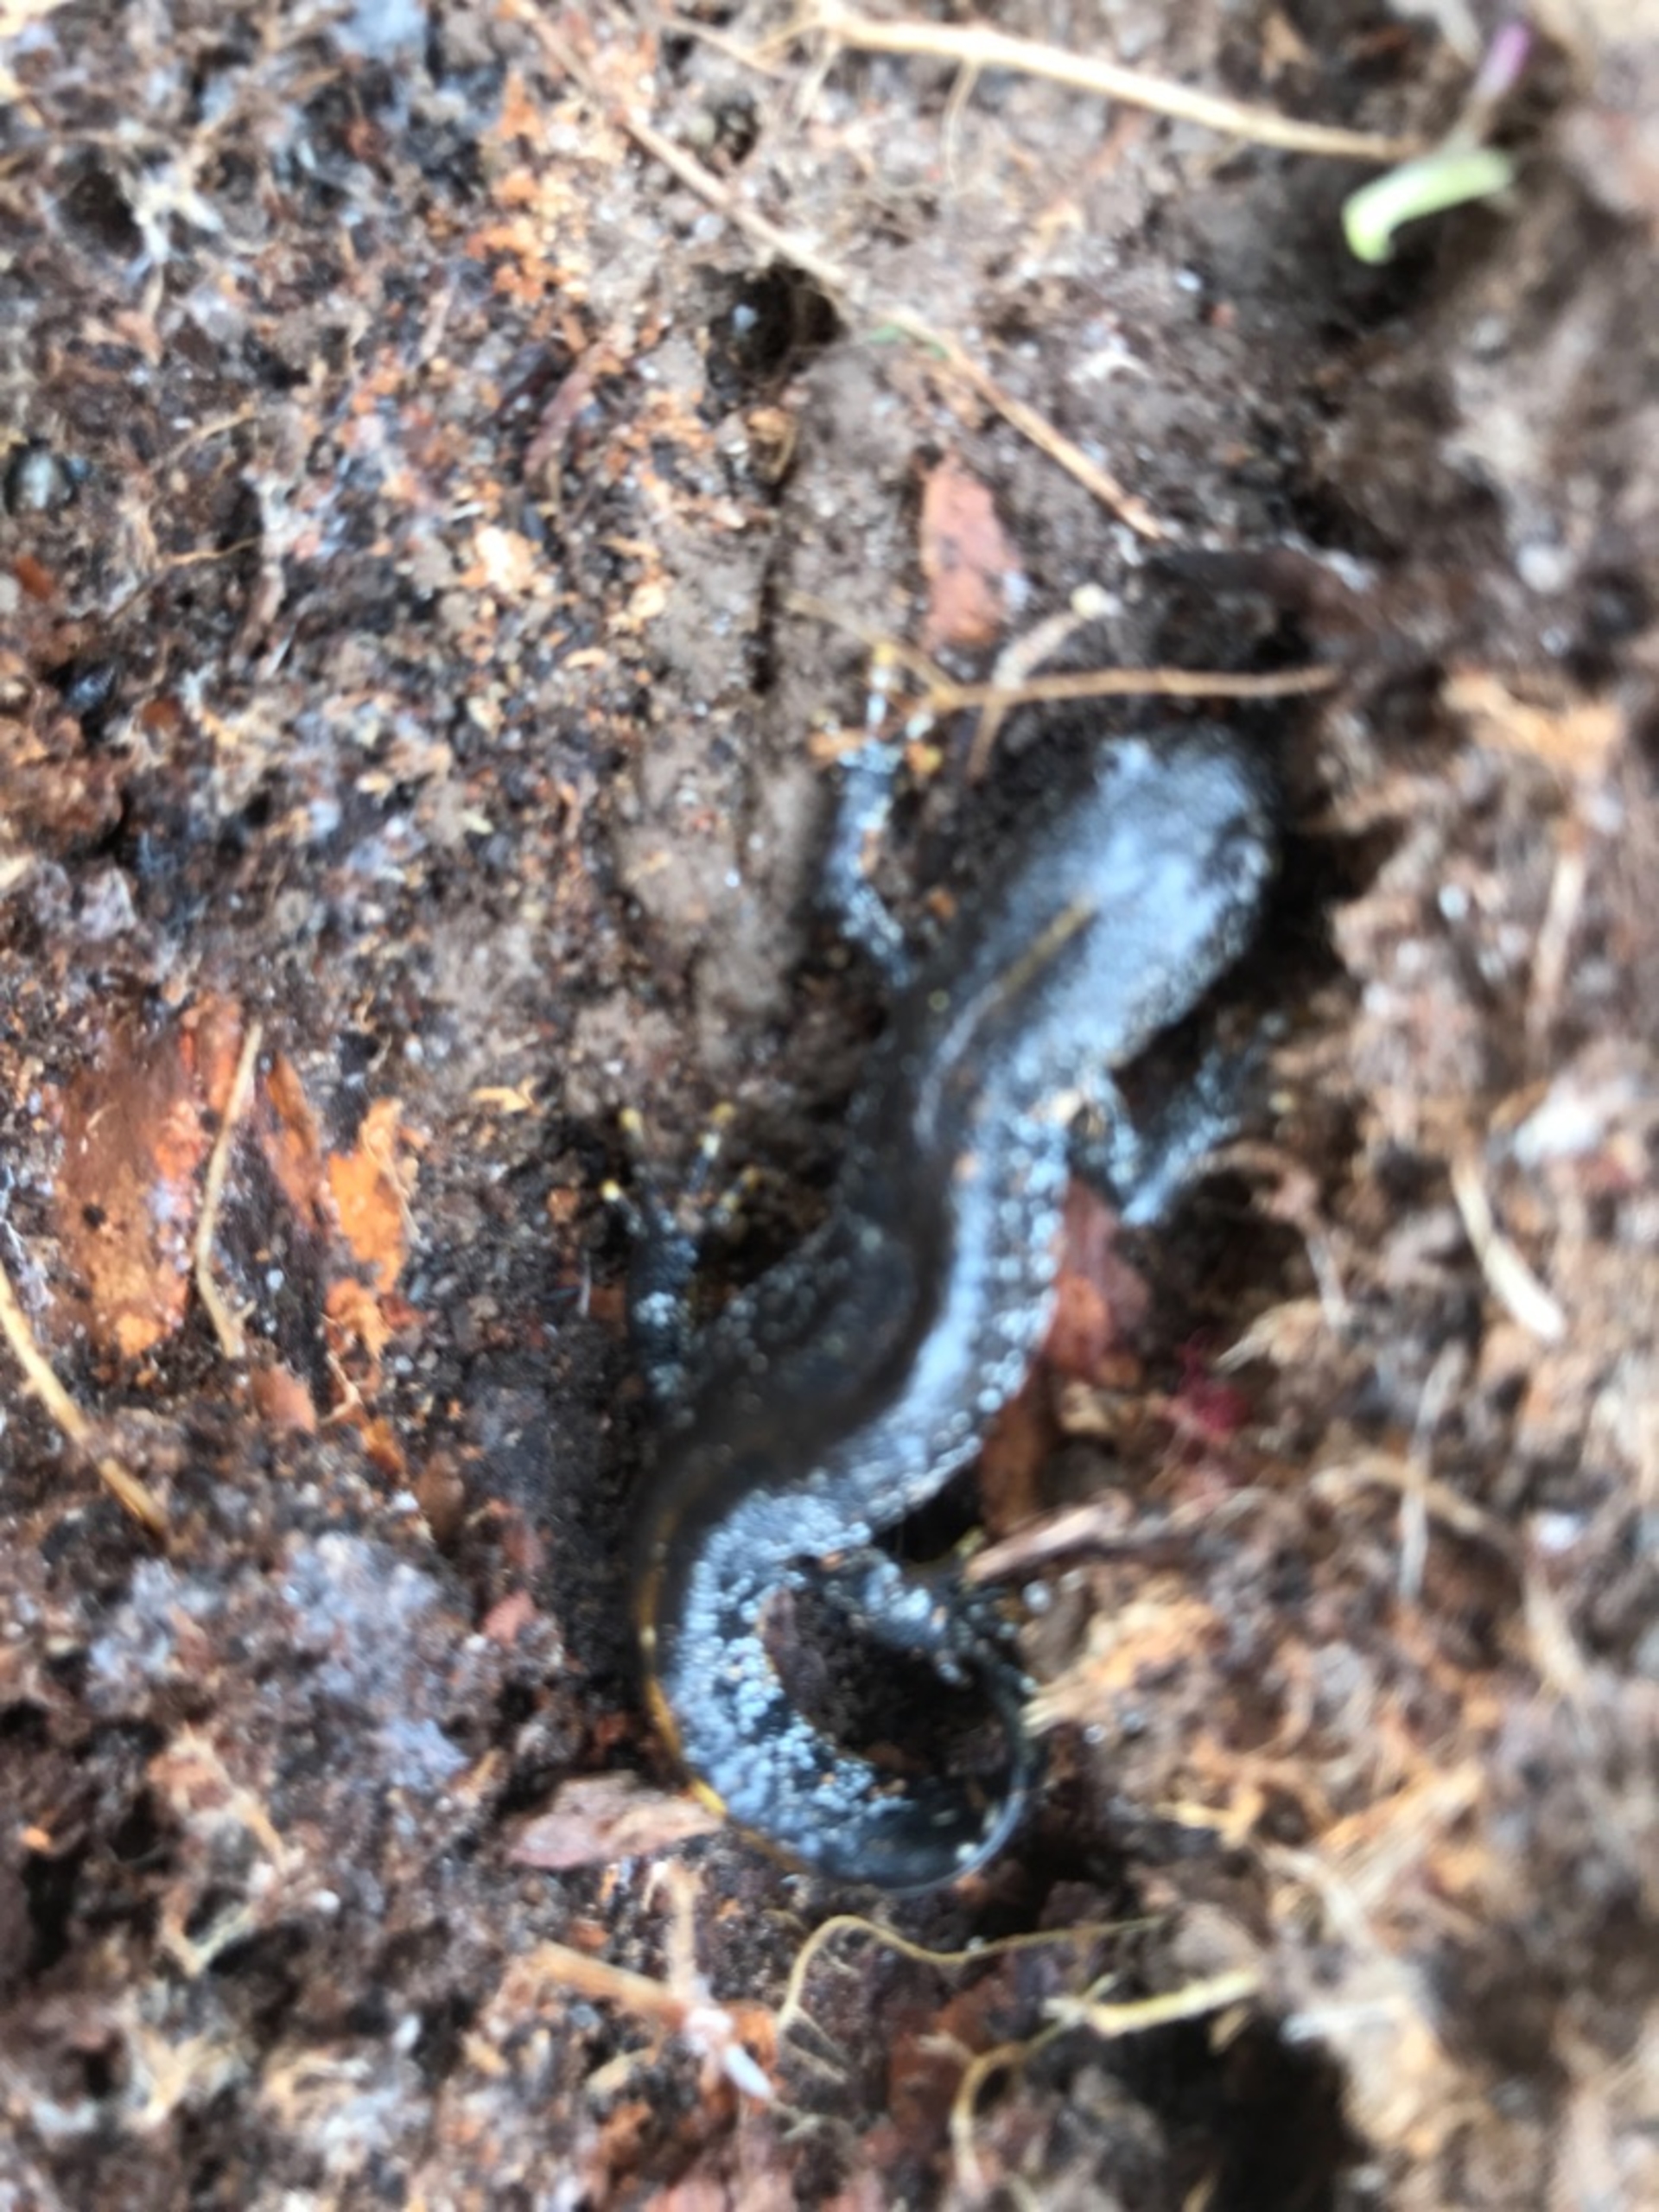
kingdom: Animalia
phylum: Chordata
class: Amphibia
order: Caudata
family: Salamandridae
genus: Triturus
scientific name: Triturus cristatus
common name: Stor vandsalamander
